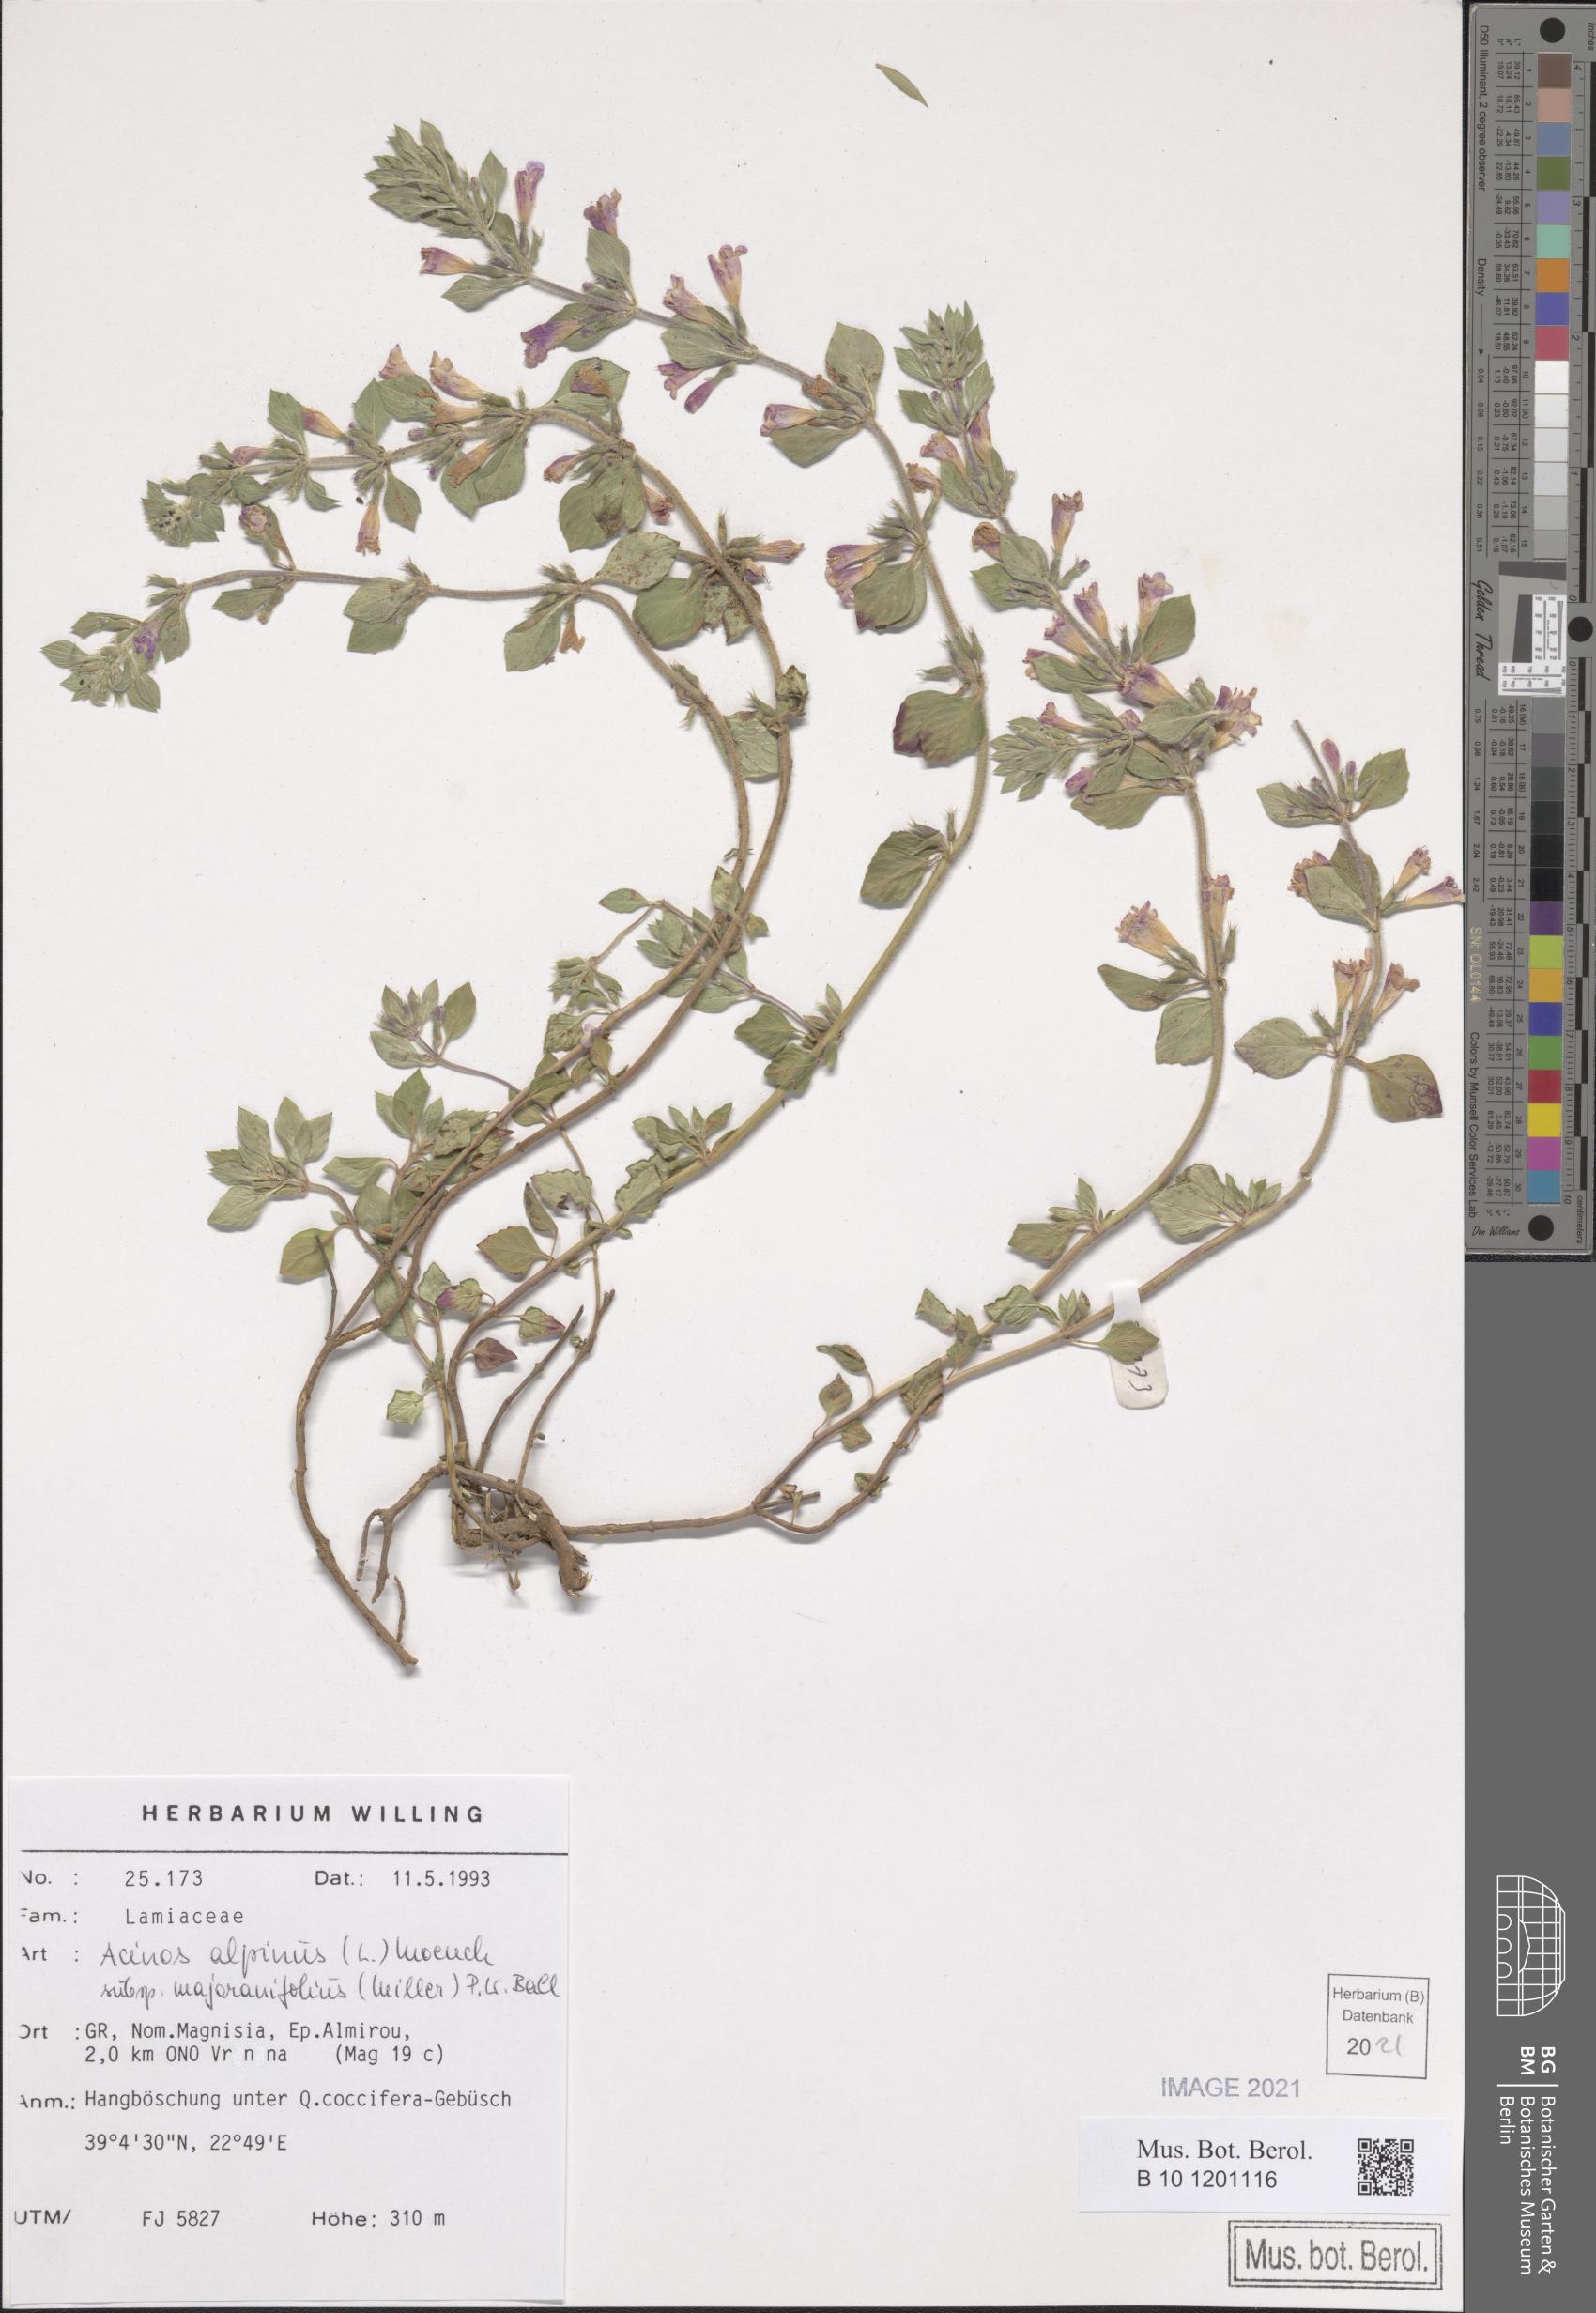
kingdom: Plantae
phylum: Tracheophyta
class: Magnoliopsida
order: Lamiales
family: Lamiaceae
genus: Clinopodium
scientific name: Clinopodium alpinum
